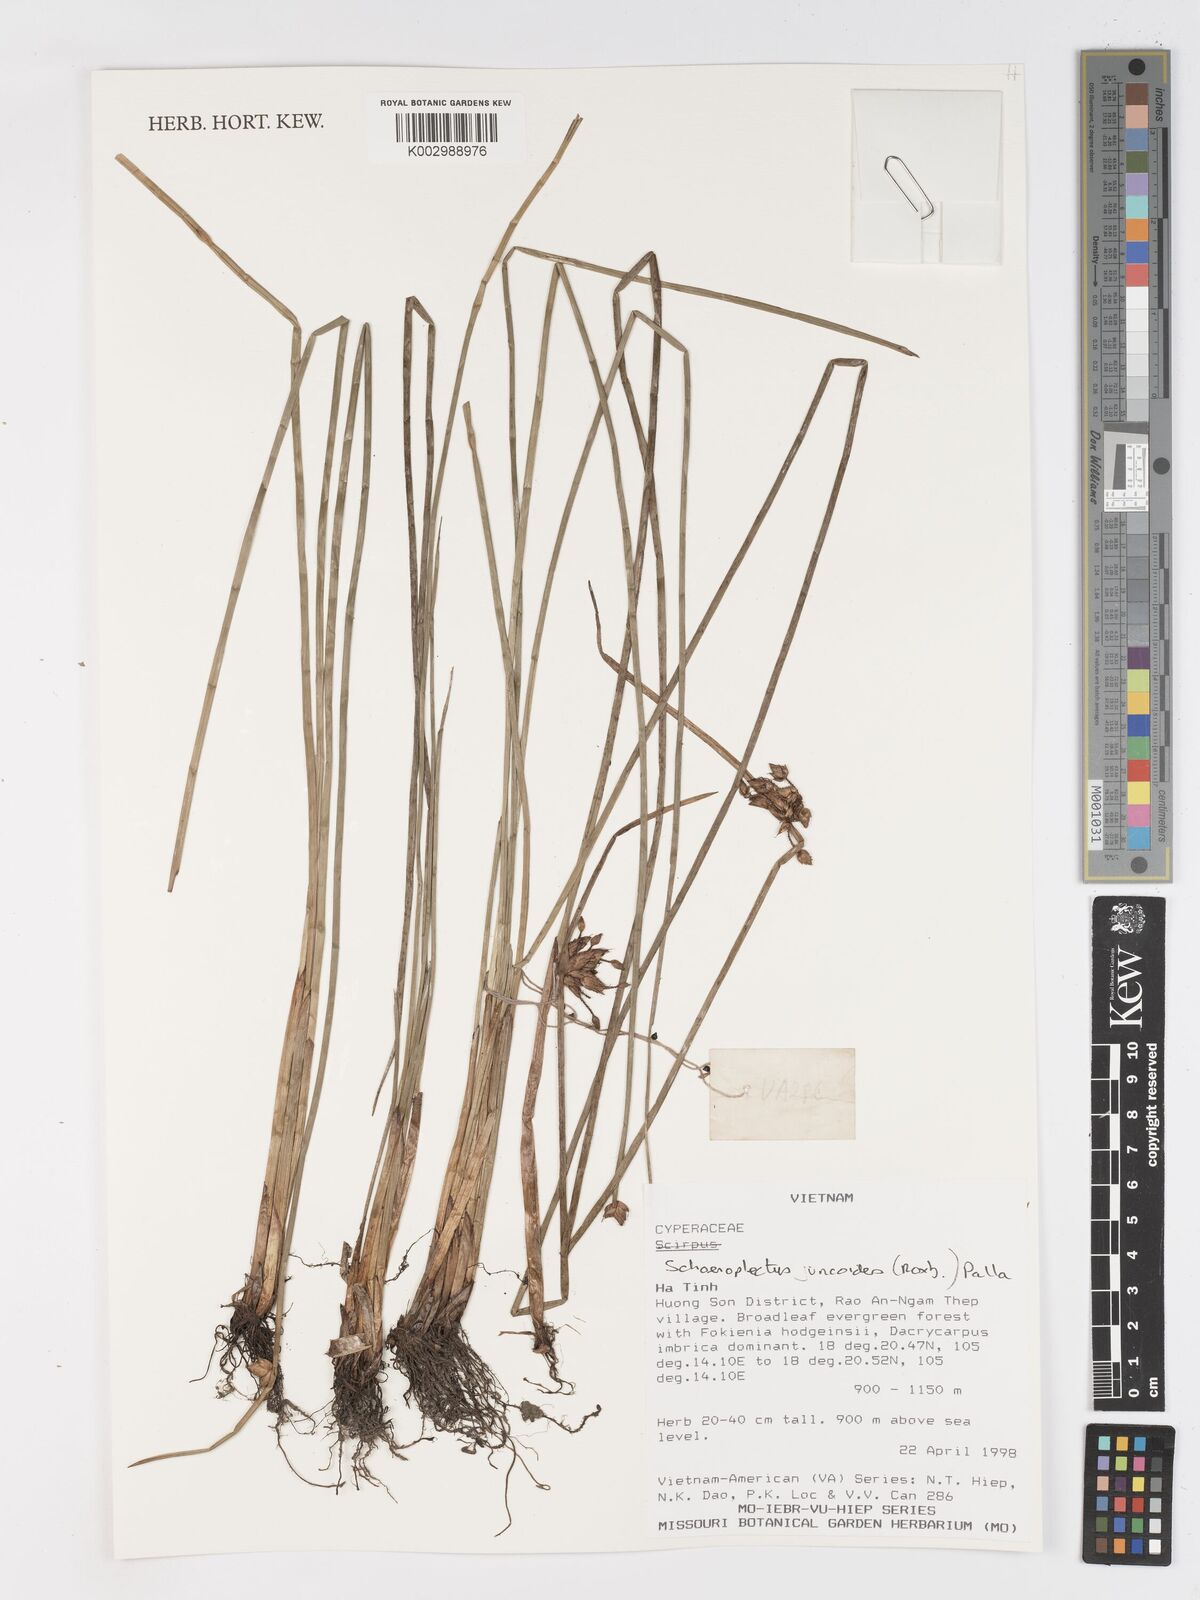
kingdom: Plantae
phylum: Tracheophyta
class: Liliopsida
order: Poales
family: Cyperaceae
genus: Schoenoplectiella
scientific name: Schoenoplectiella juncoides
